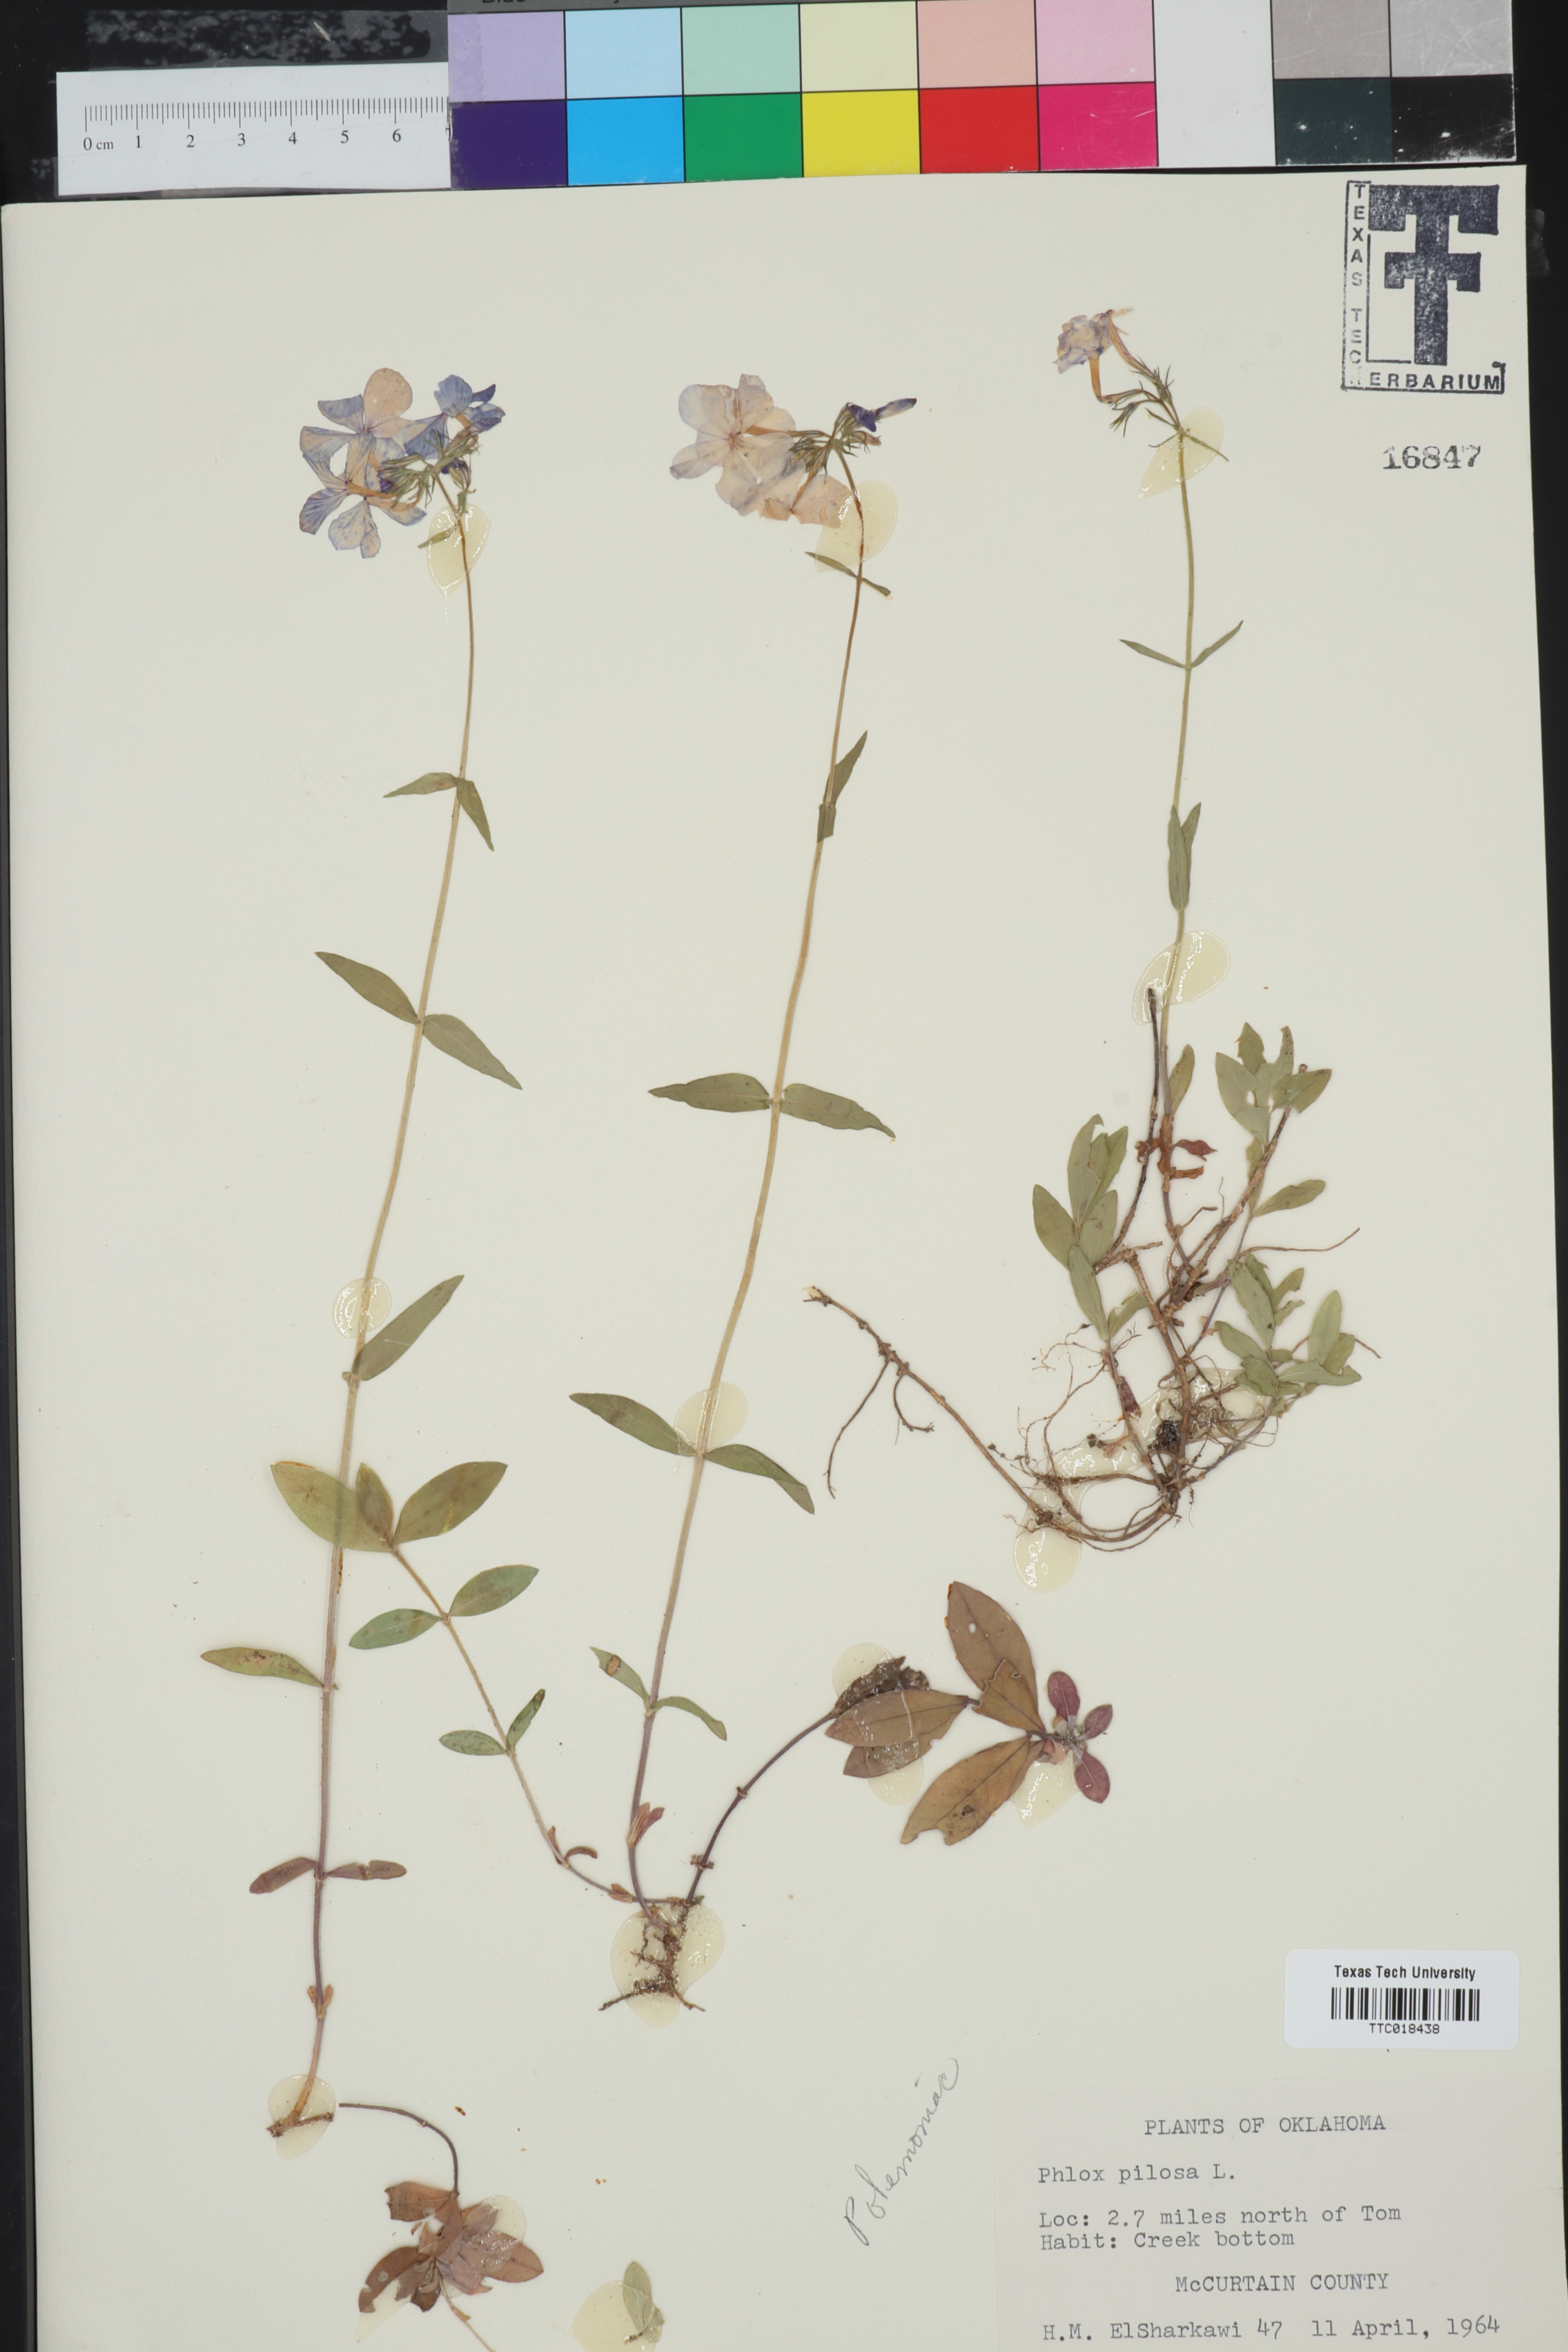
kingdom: Plantae
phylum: Tracheophyta
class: Magnoliopsida
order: Ericales
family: Polemoniaceae
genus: Phlox
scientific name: Phlox pilosa
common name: Prairie phlox
